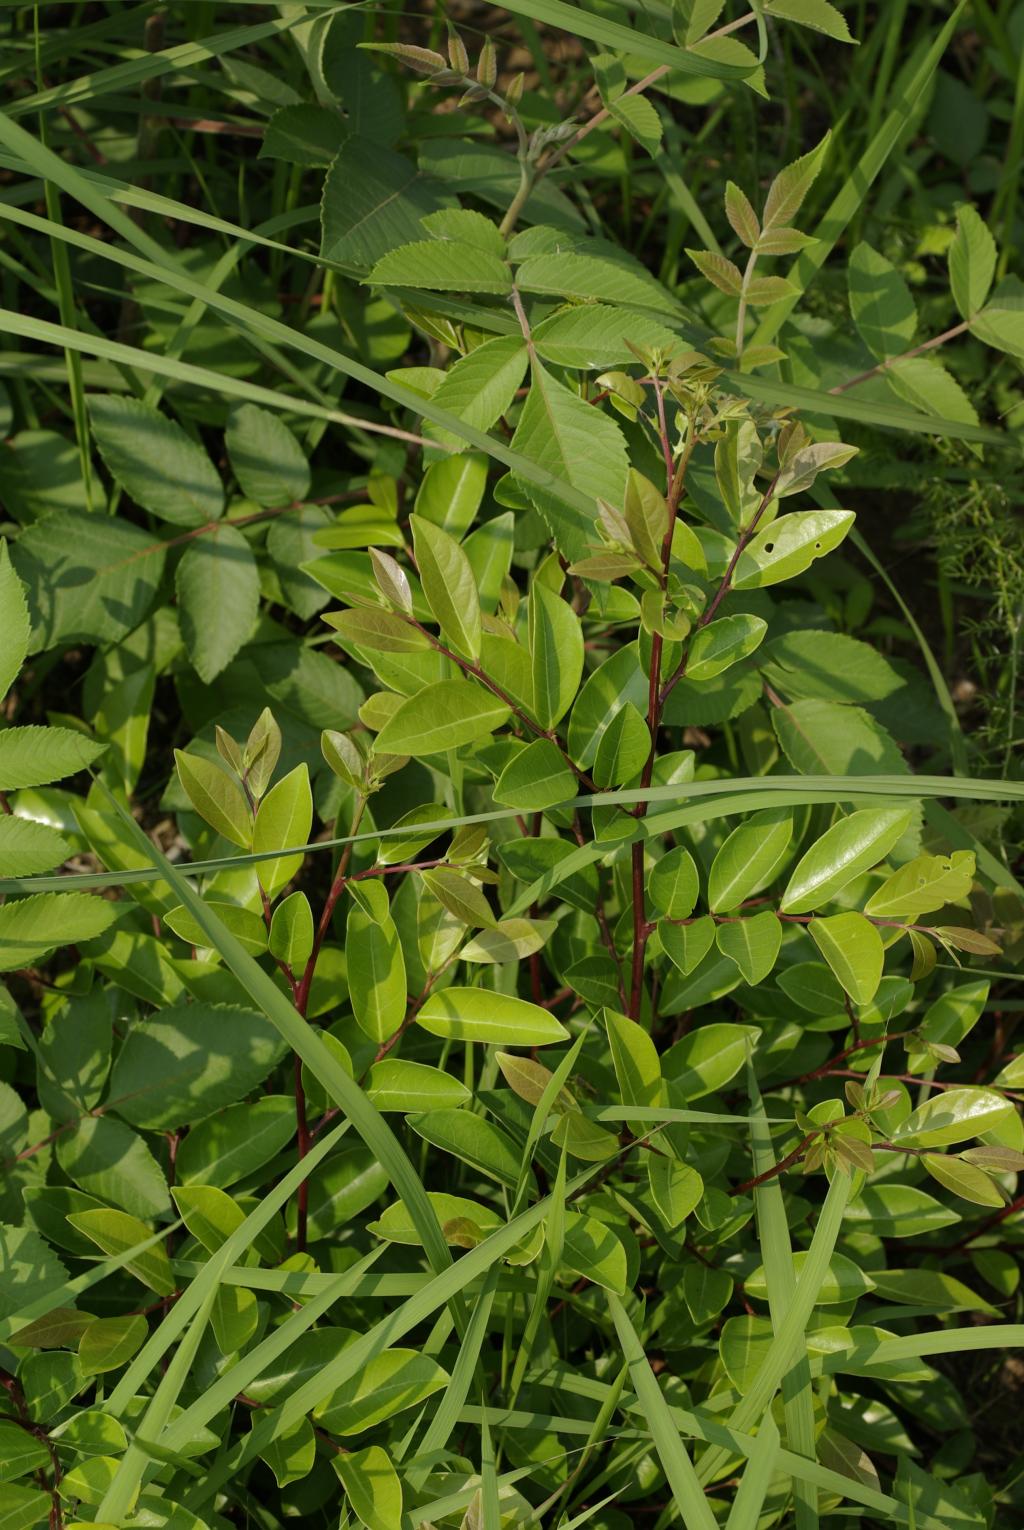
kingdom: Plantae
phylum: Tracheophyta
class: Magnoliopsida
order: Malpighiales
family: Phyllanthaceae
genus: Glochidion
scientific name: Glochidion rubrum
